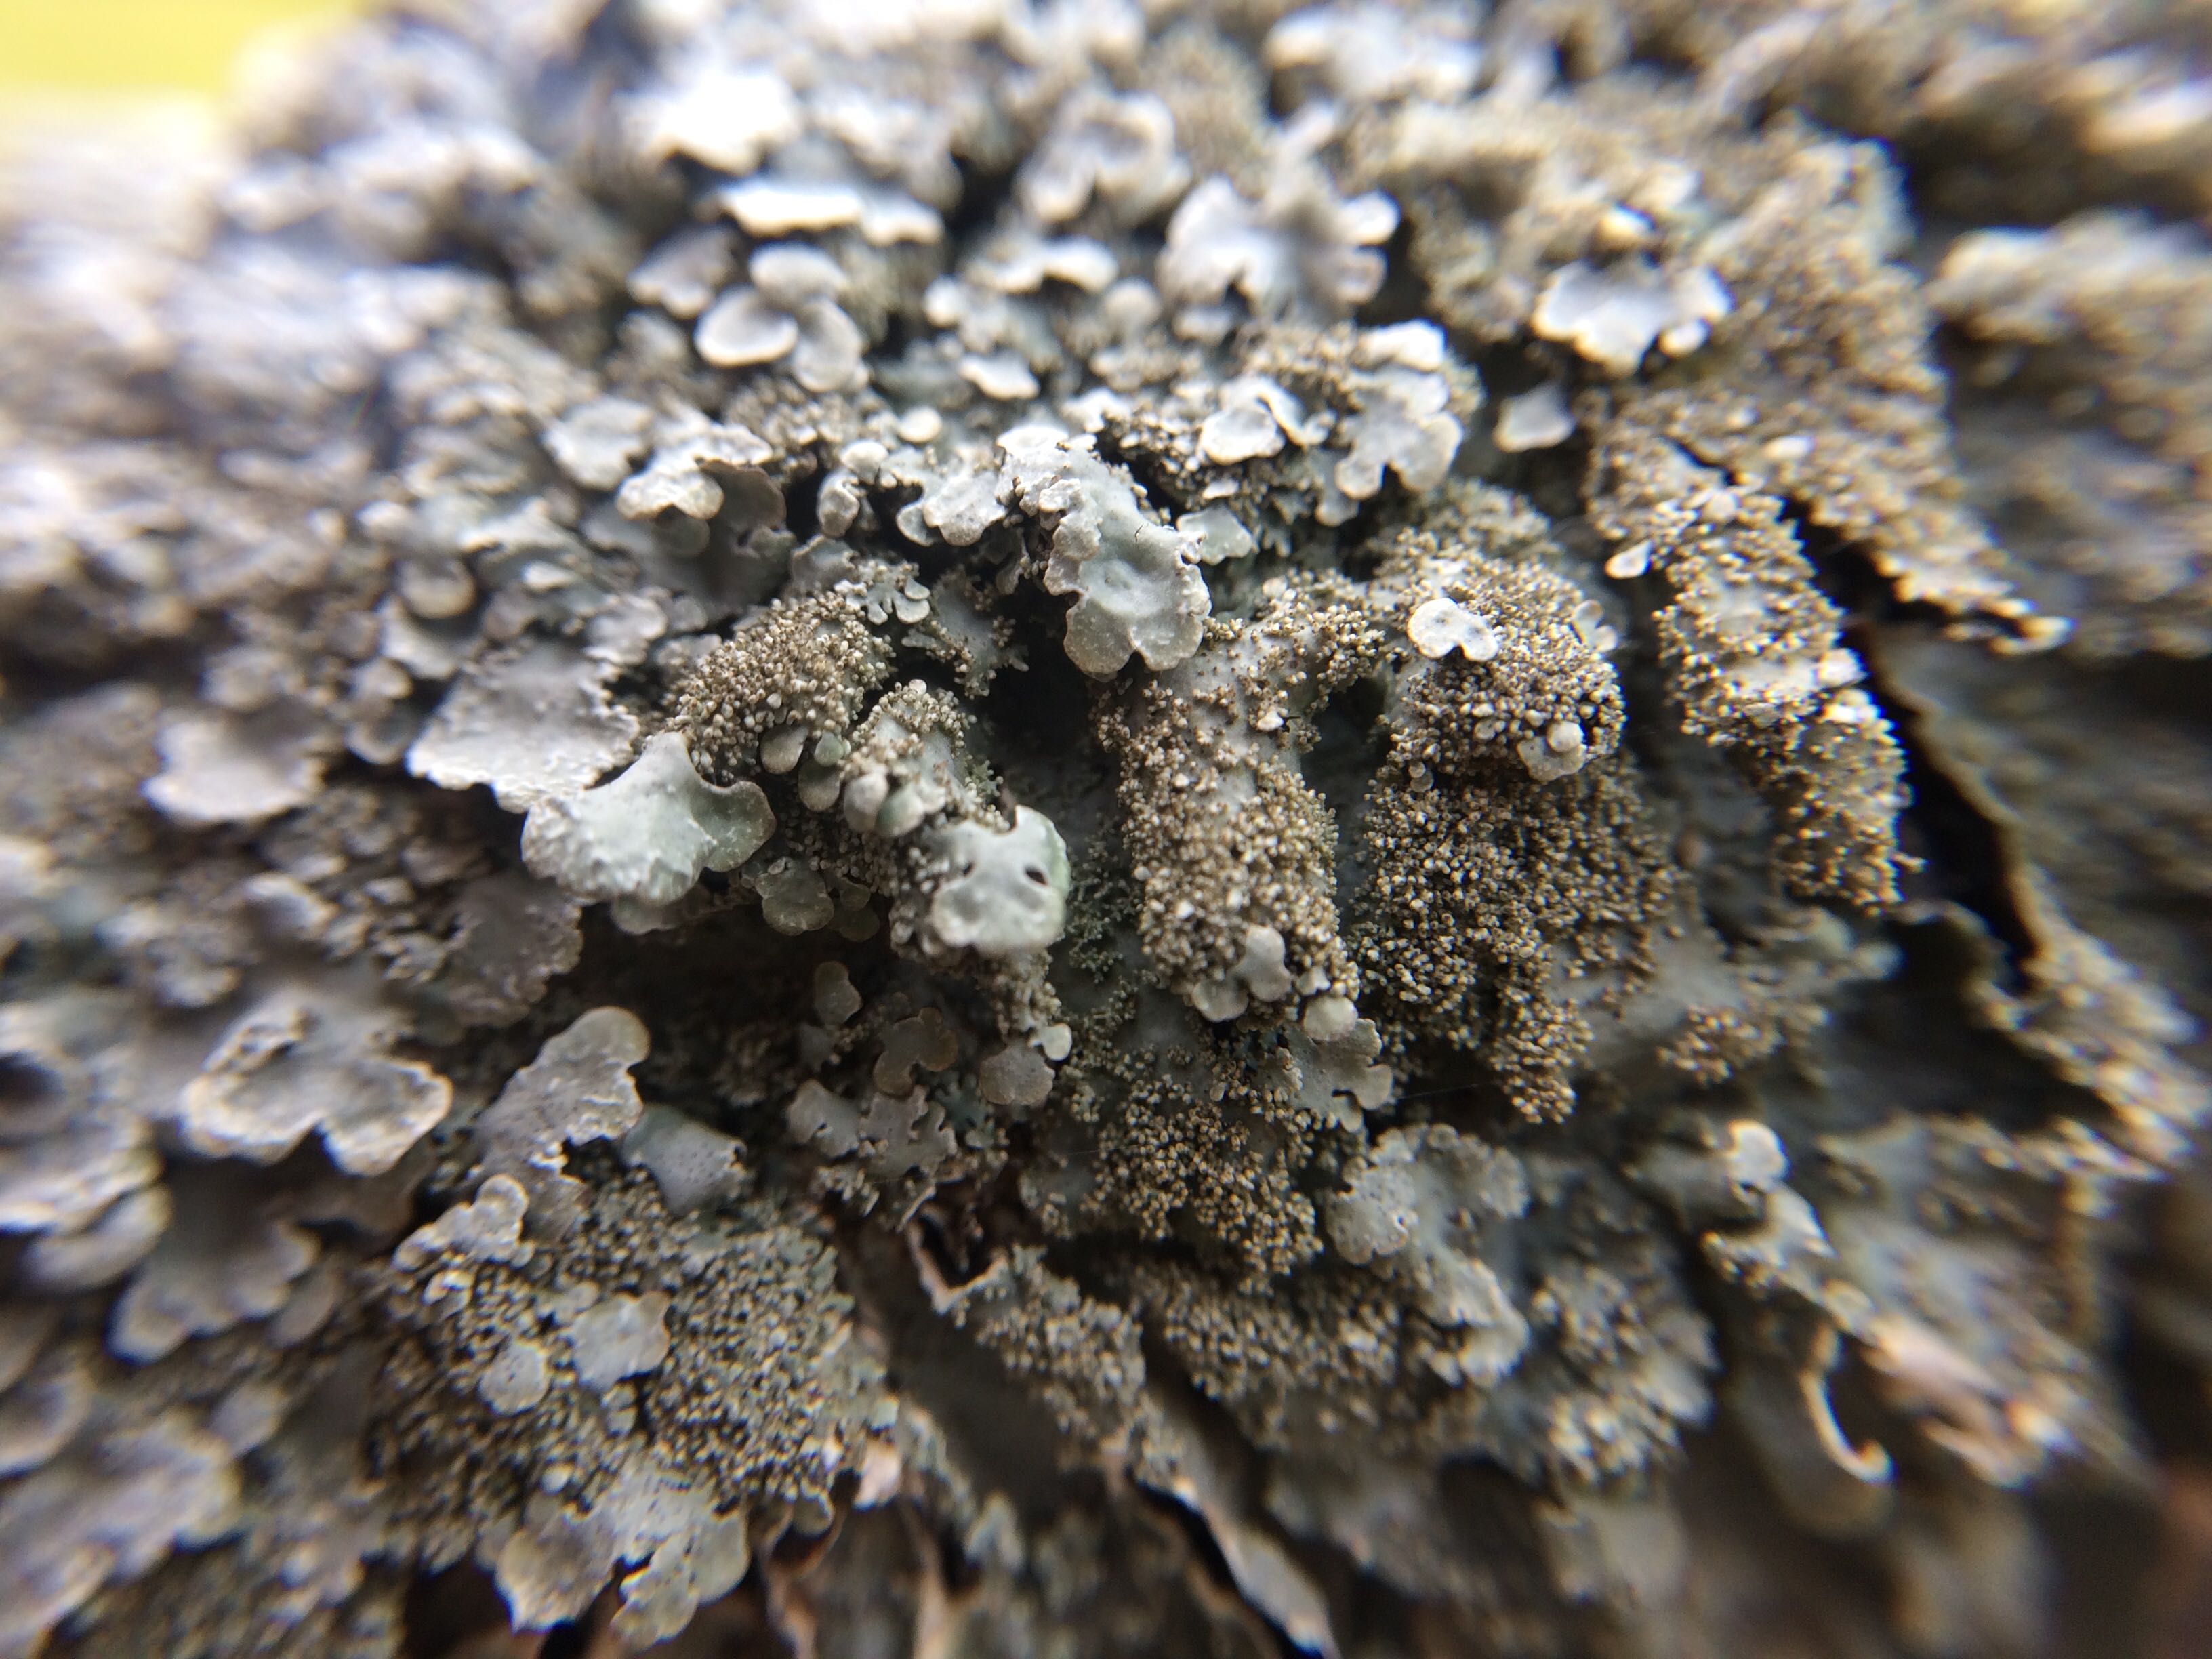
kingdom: Fungi
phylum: Ascomycota
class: Lecanoromycetes
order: Lecanorales
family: Parmeliaceae
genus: Parmelia
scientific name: Parmelia
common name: farve-skållav
